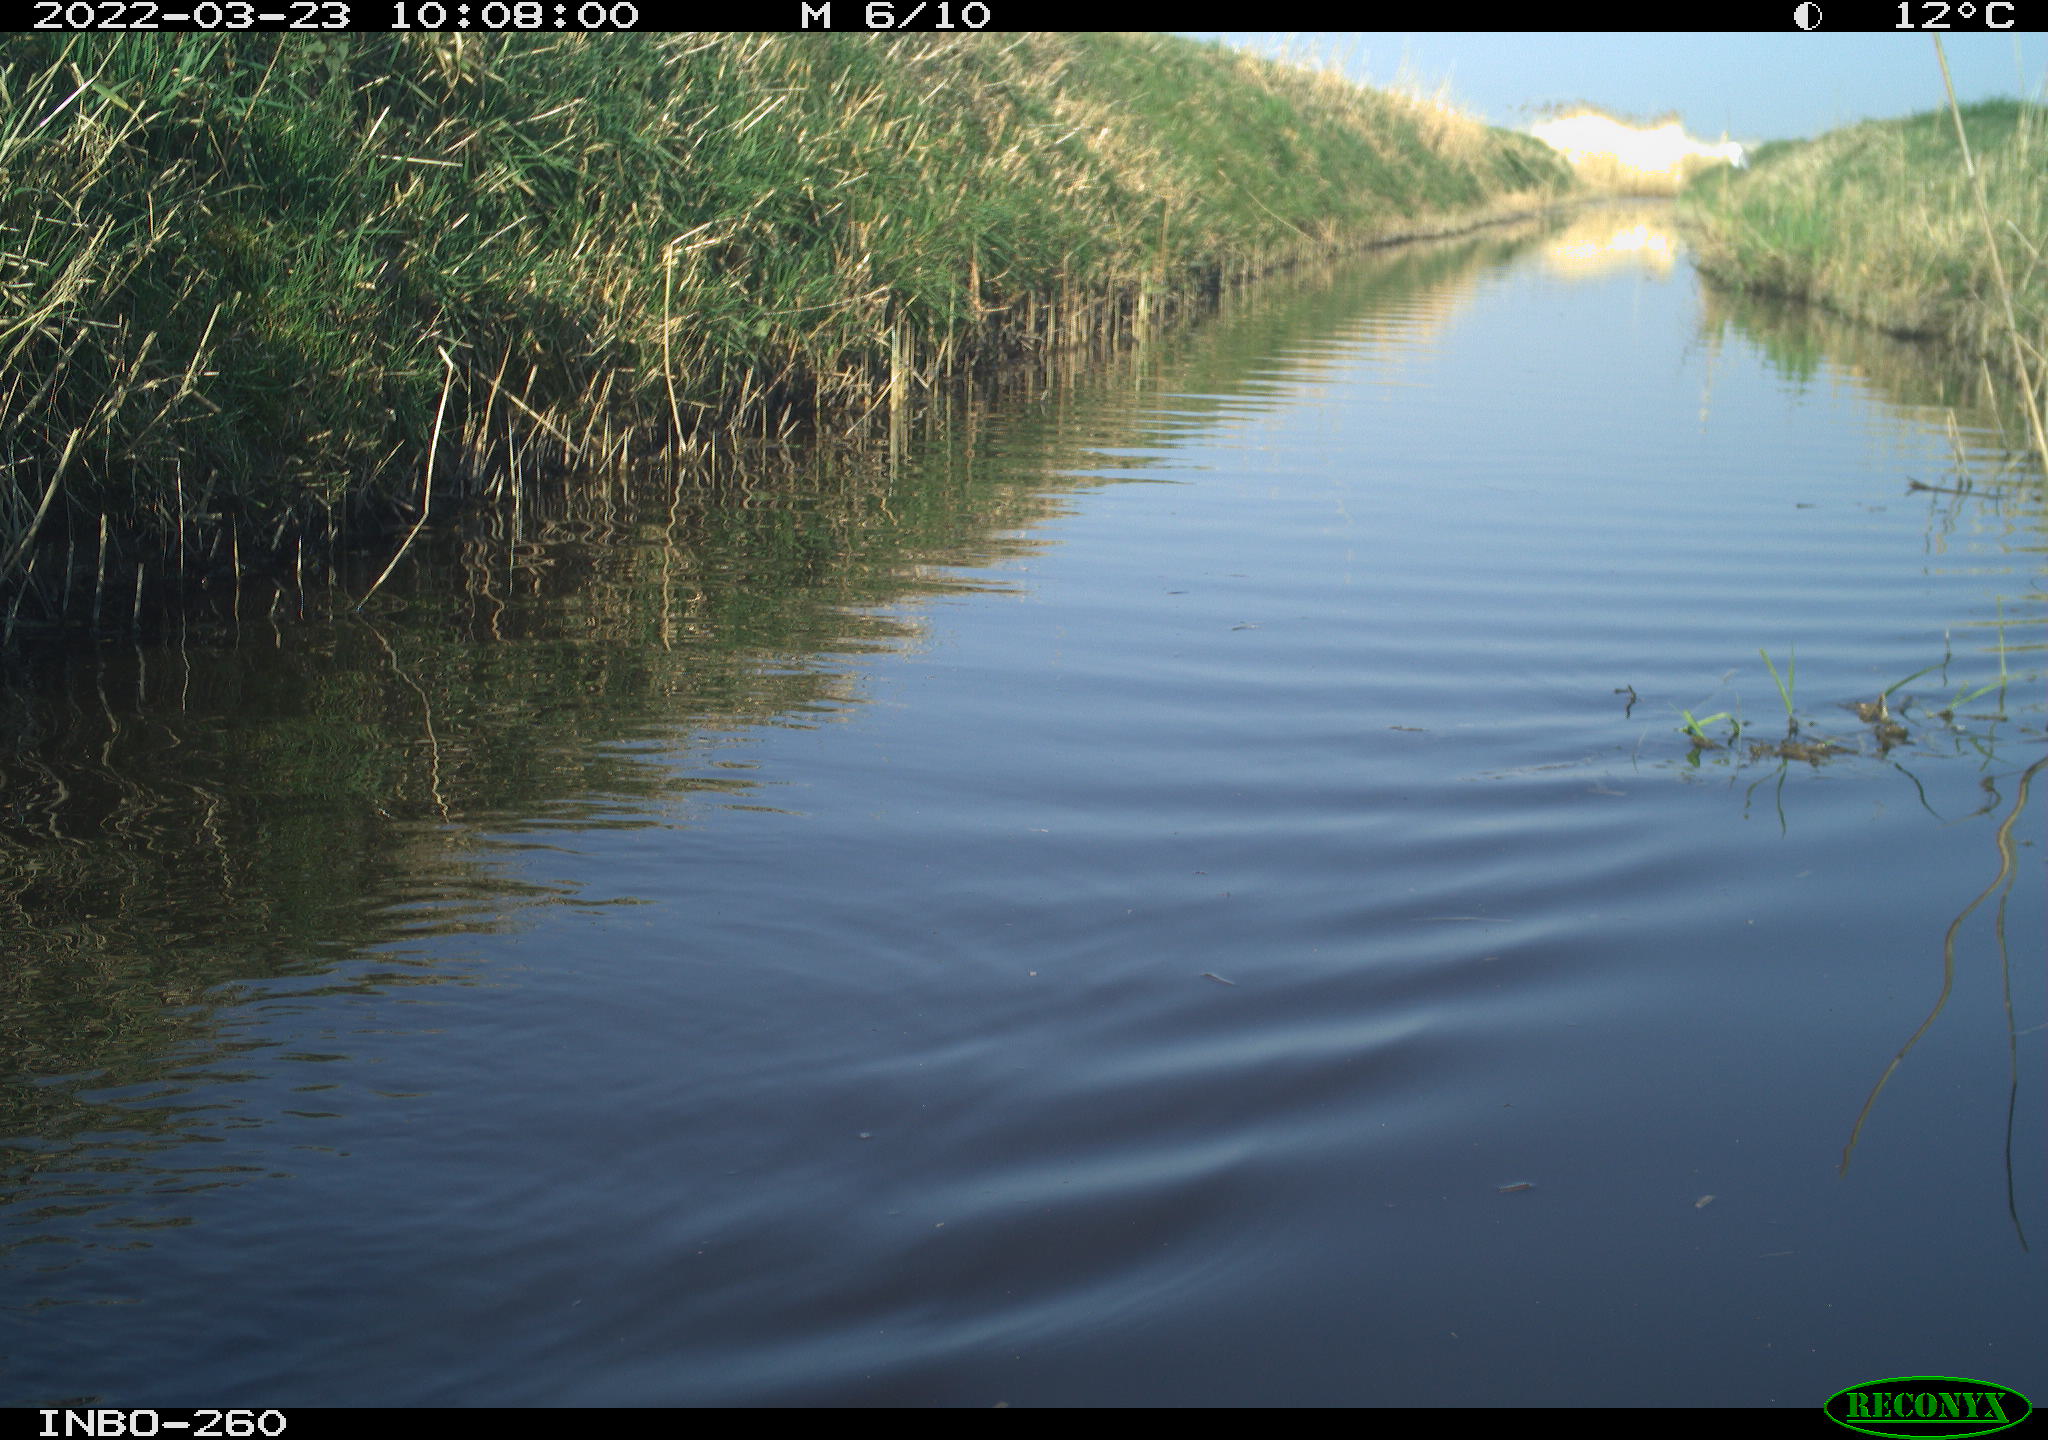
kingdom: Animalia
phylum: Chordata
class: Aves
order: Gruiformes
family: Rallidae
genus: Fulica
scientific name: Fulica atra
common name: Eurasian coot
